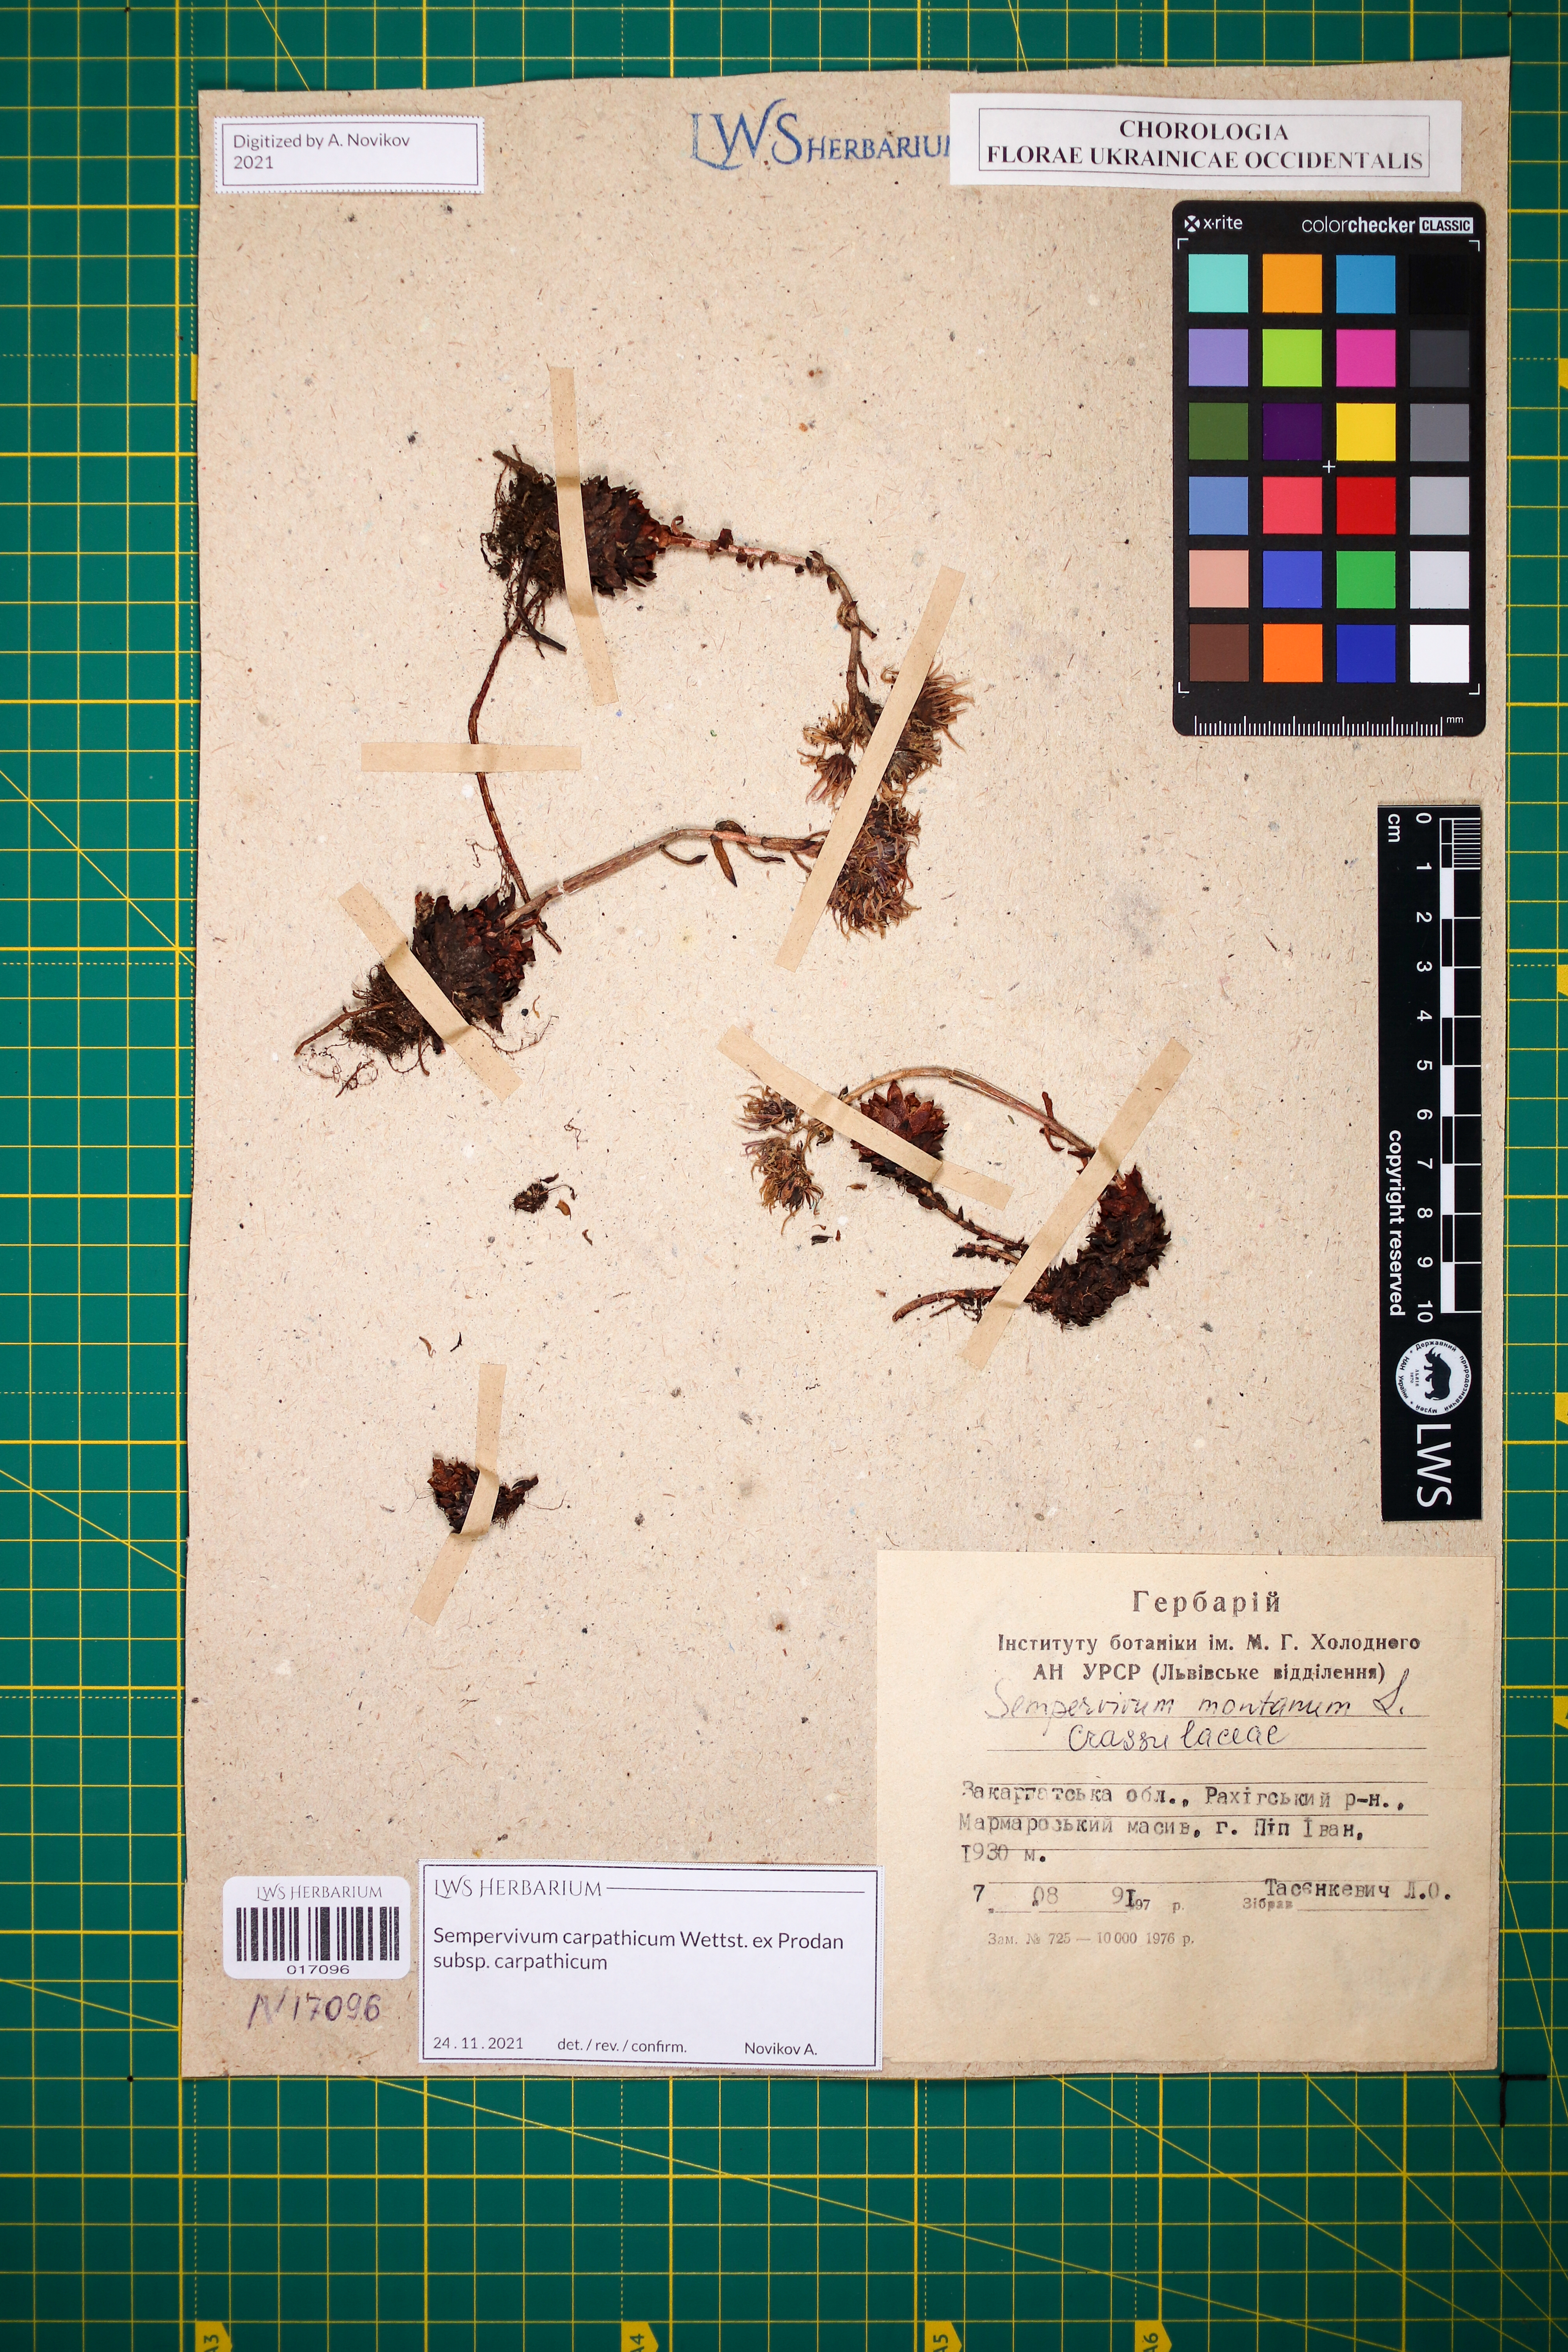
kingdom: Plantae
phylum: Tracheophyta
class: Magnoliopsida
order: Saxifragales
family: Crassulaceae
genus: Sempervivum
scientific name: Sempervivum montanum
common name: Mountain house-leek
